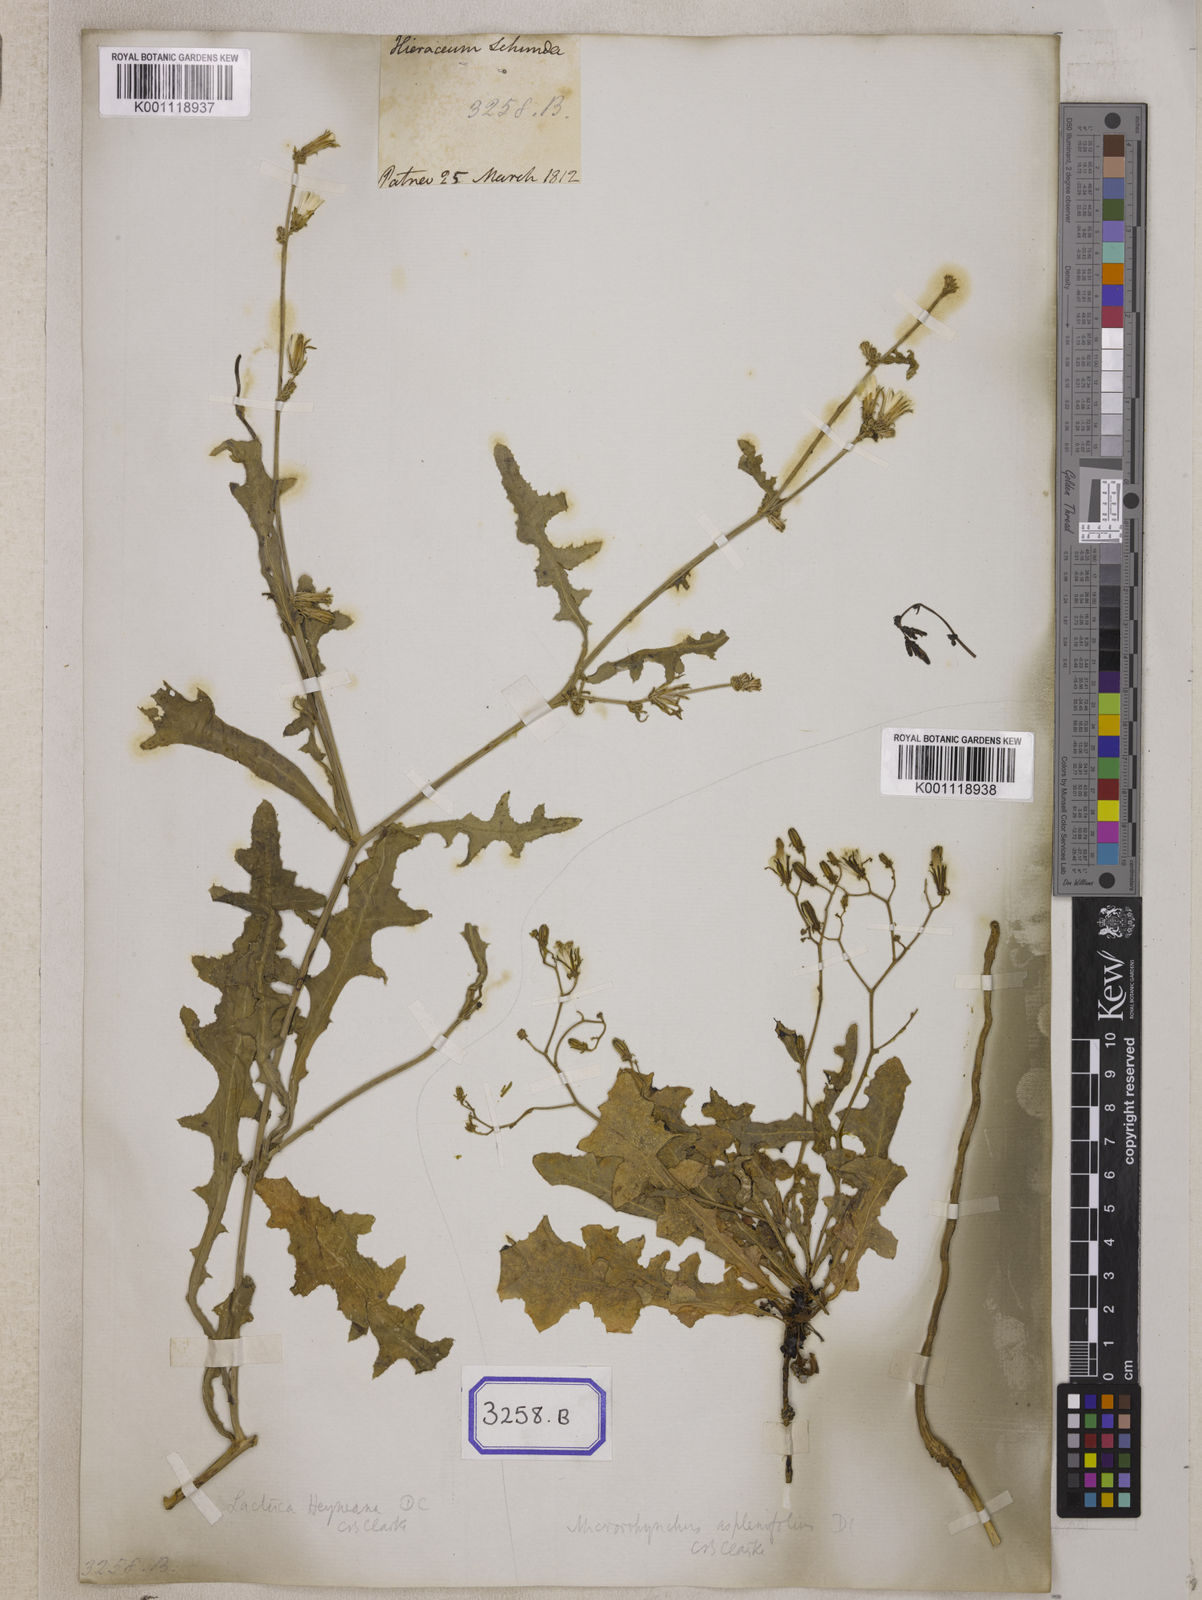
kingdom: Plantae
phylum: Tracheophyta
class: Magnoliopsida
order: Asterales
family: Asteraceae
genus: Launaea
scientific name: Launaea procumbens
